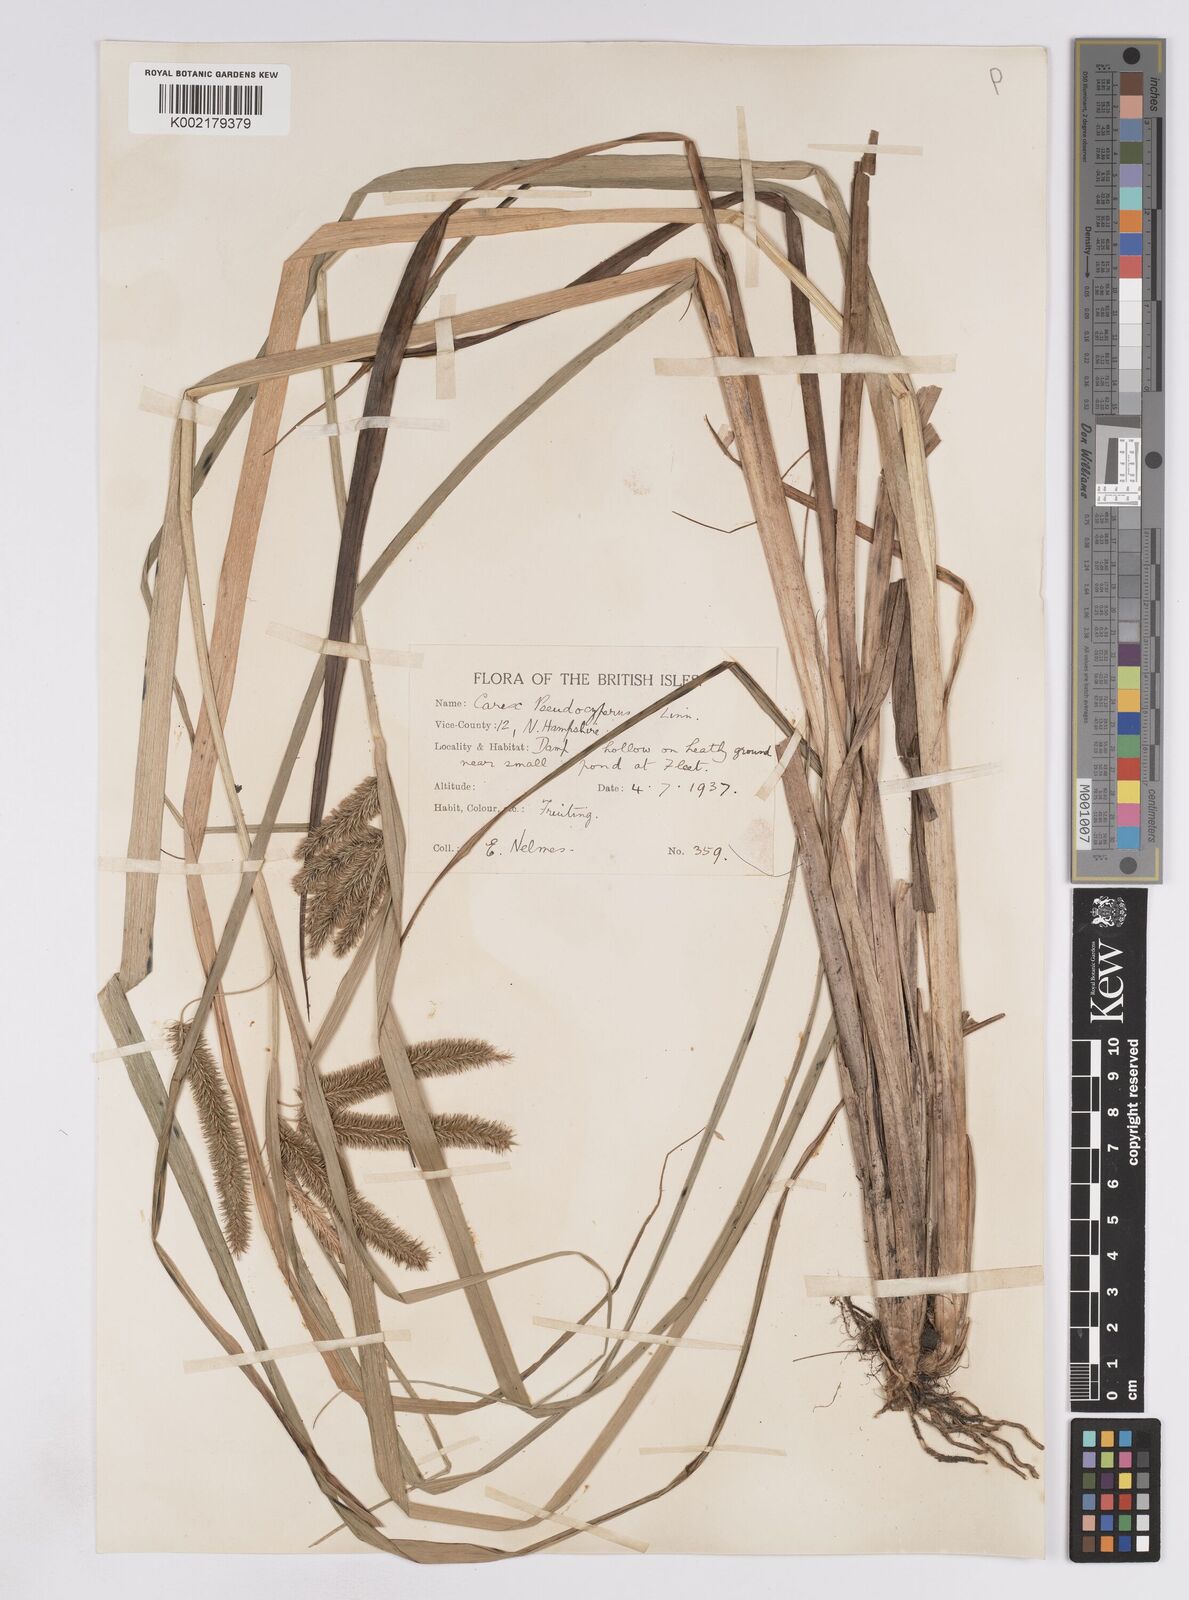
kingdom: Plantae
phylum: Tracheophyta
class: Liliopsida
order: Poales
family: Cyperaceae
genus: Carex
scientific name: Carex pseudocyperus
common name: Cyperus sedge
